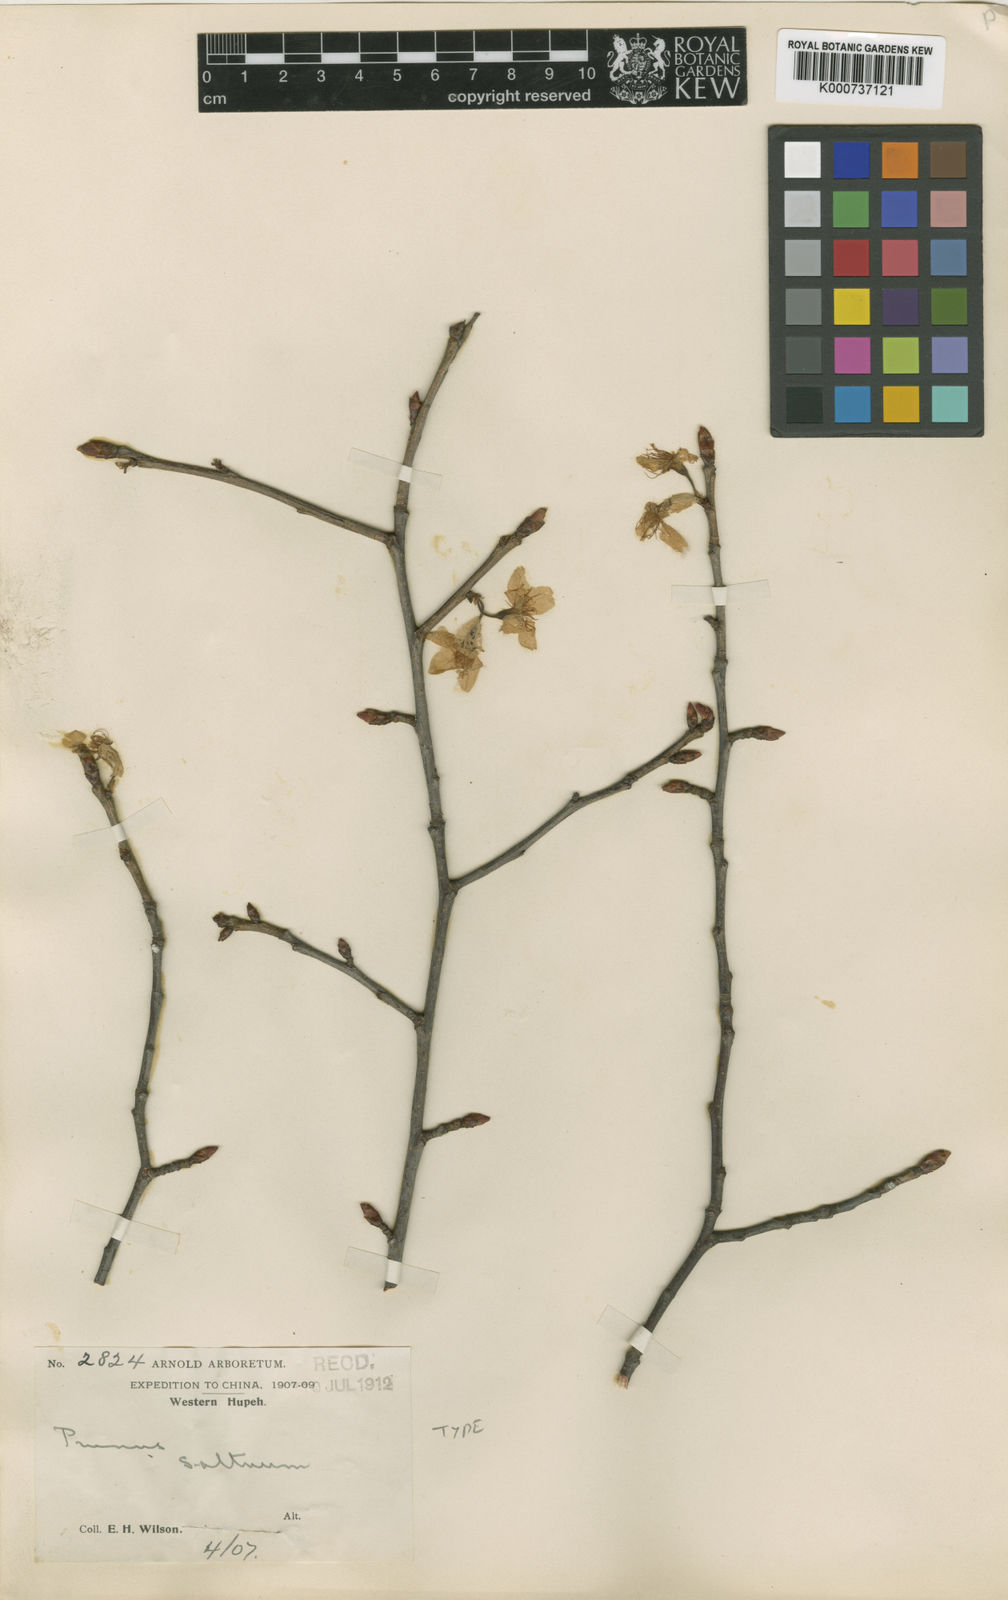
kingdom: Plantae
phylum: Tracheophyta
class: Magnoliopsida
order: Rosales
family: Rosaceae
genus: Prunus
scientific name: Prunus pseudocerasus
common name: Ying tao cherry
